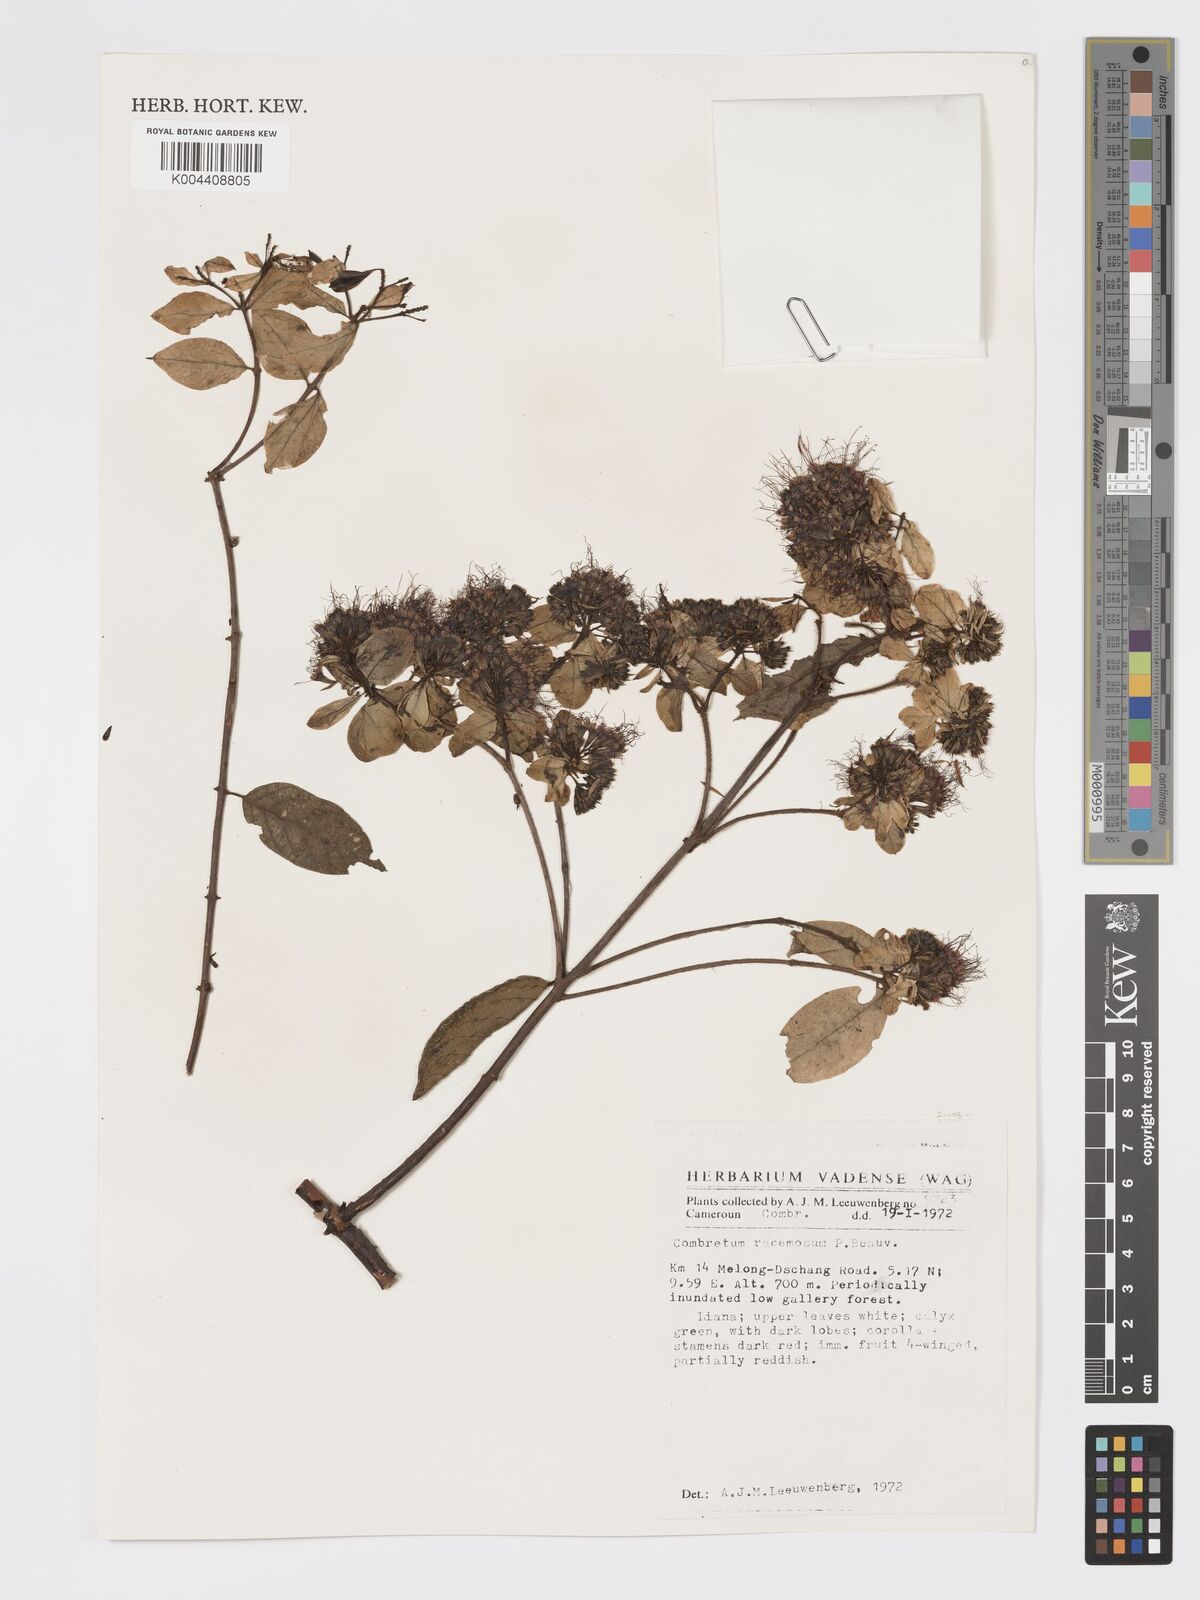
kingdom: Plantae
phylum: Tracheophyta
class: Magnoliopsida
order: Myrtales
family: Combretaceae
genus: Combretum
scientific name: Combretum racemosum
